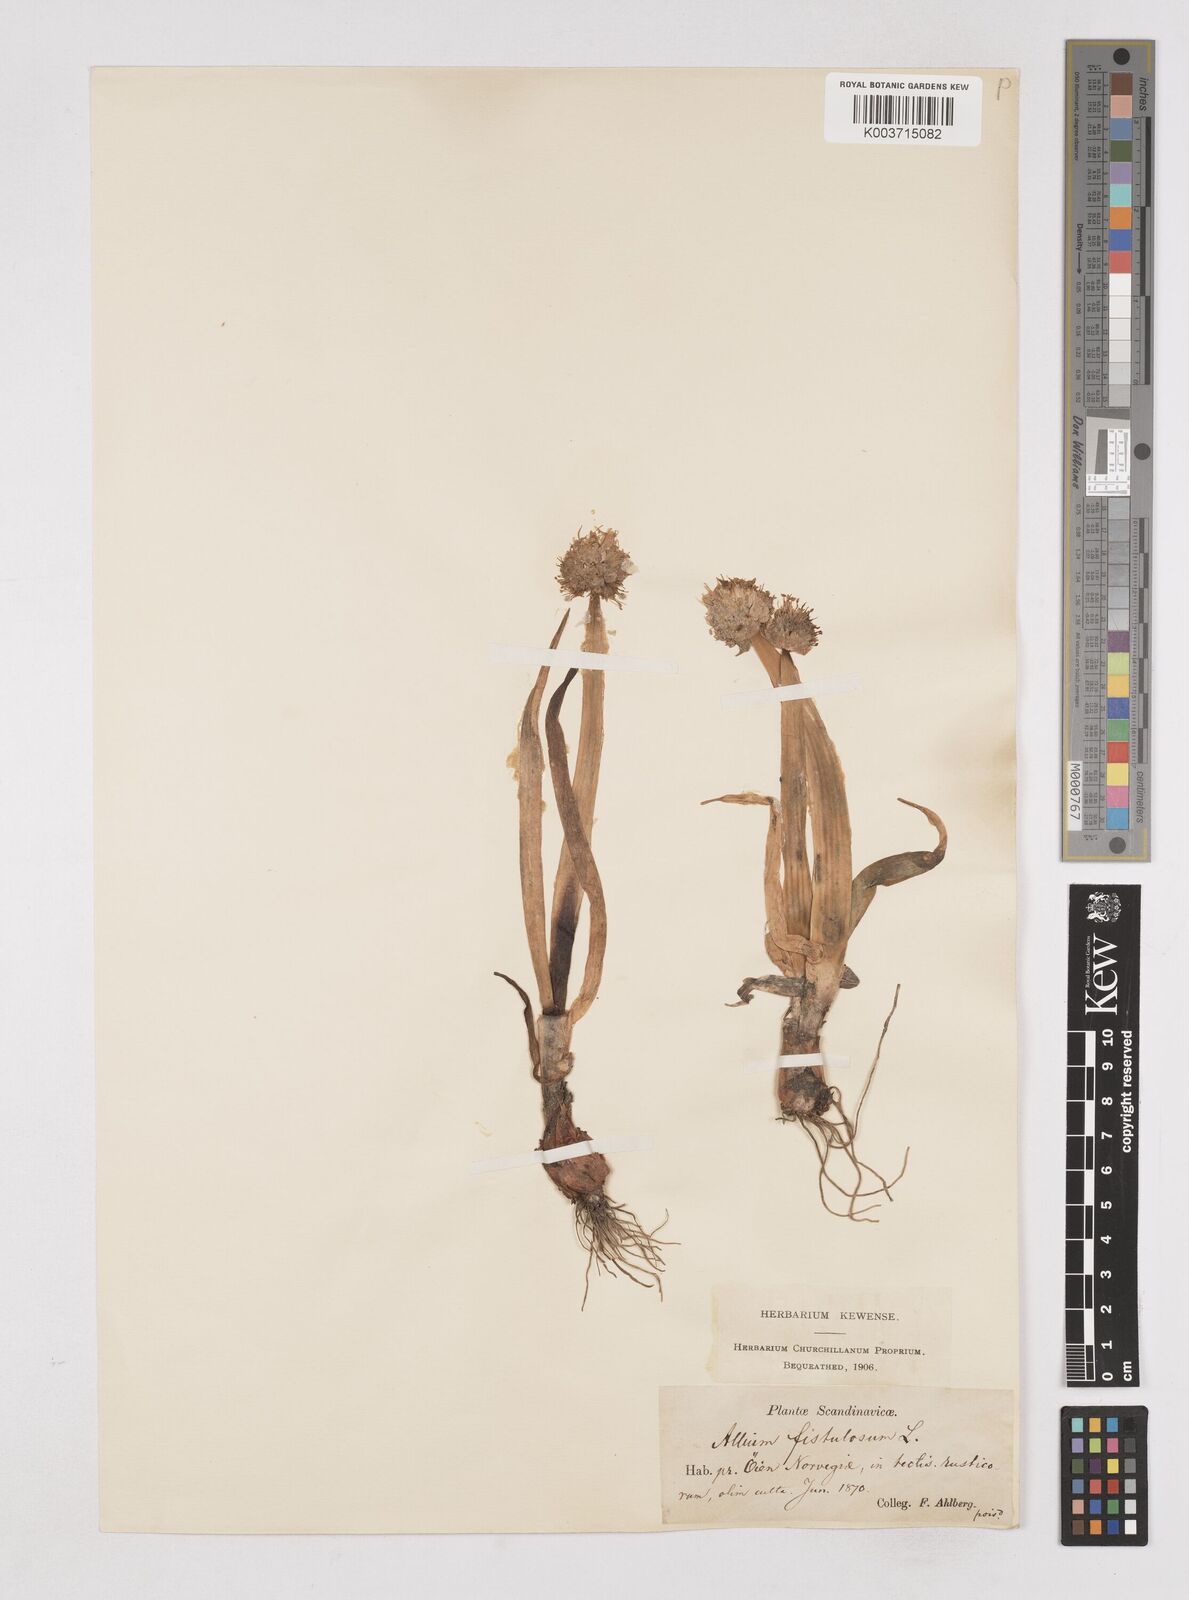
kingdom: Plantae
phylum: Tracheophyta
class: Liliopsida
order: Asparagales
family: Amaryllidaceae
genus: Allium
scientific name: Allium fistulosum
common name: Welsh onion
